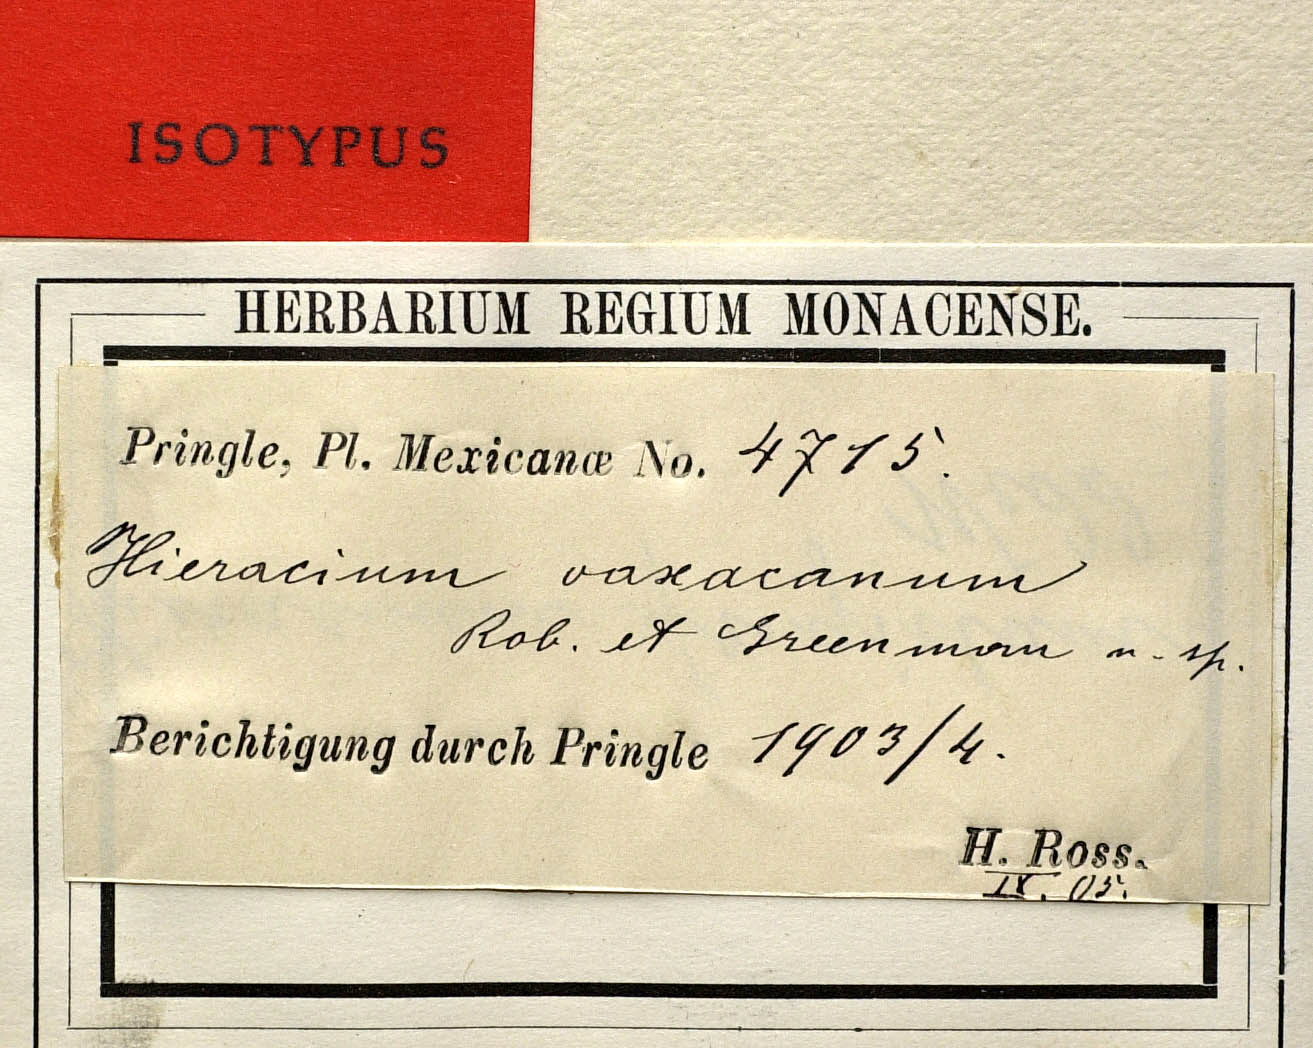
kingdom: Plantae
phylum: Tracheophyta
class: Magnoliopsida
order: Asterales
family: Asteraceae
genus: Hieracium
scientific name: Hieracium friesii
